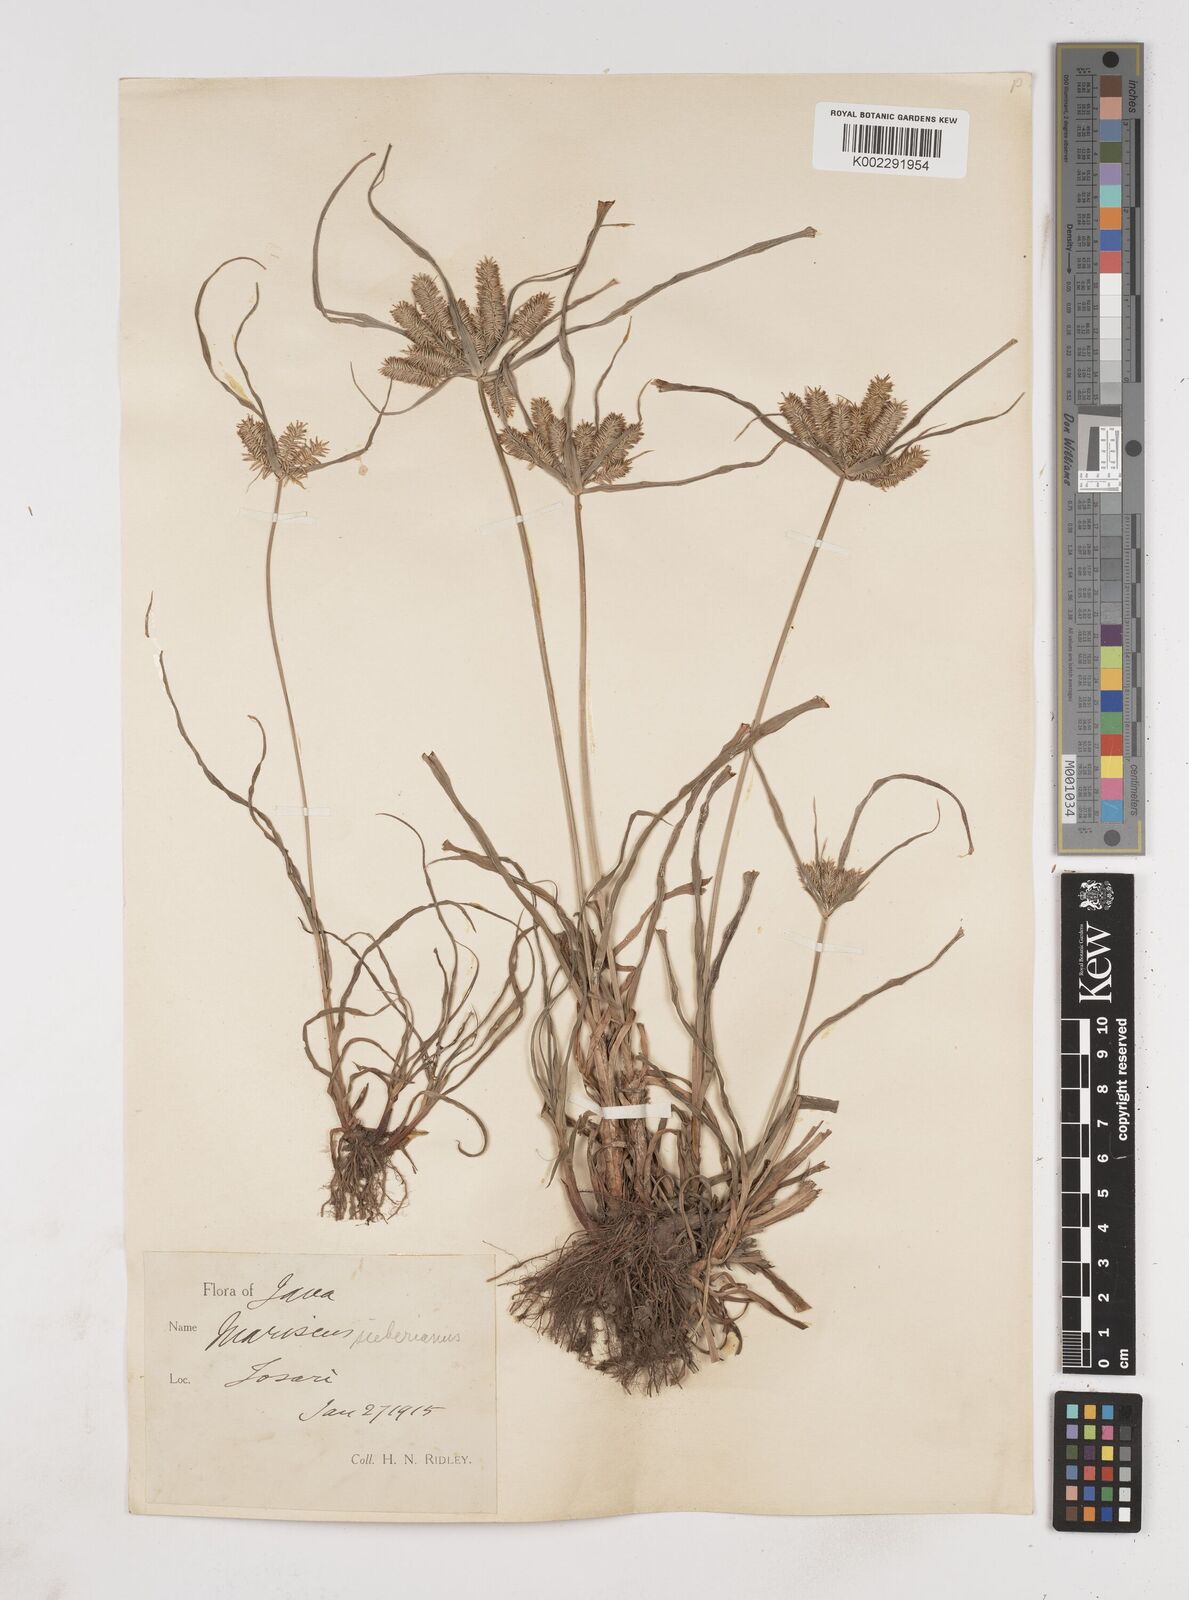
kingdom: Plantae
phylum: Tracheophyta
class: Liliopsida
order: Poales
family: Cyperaceae
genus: Cyperus
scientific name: Cyperus cyperoides
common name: Pacific island flat sedge
